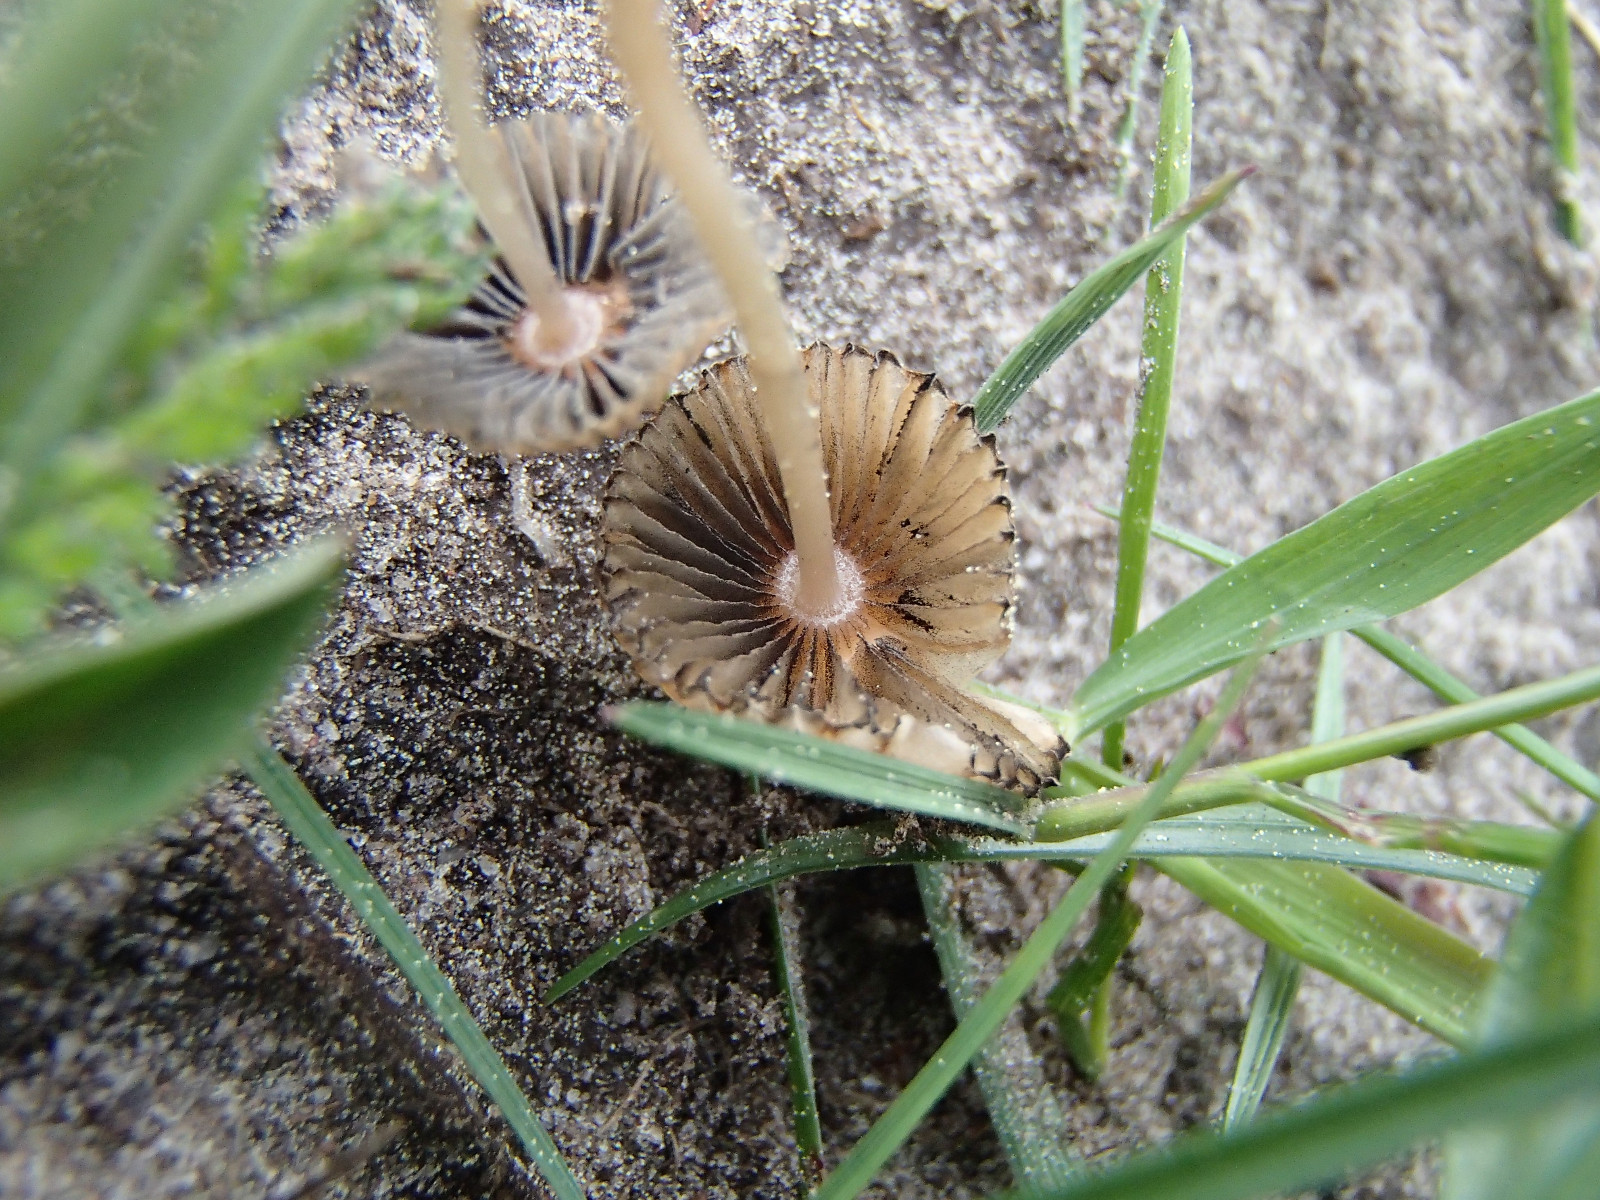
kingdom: Fungi
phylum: Basidiomycota
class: Agaricomycetes
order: Agaricales
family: Psathyrellaceae
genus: Parasola
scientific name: Parasola
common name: hjulhat
